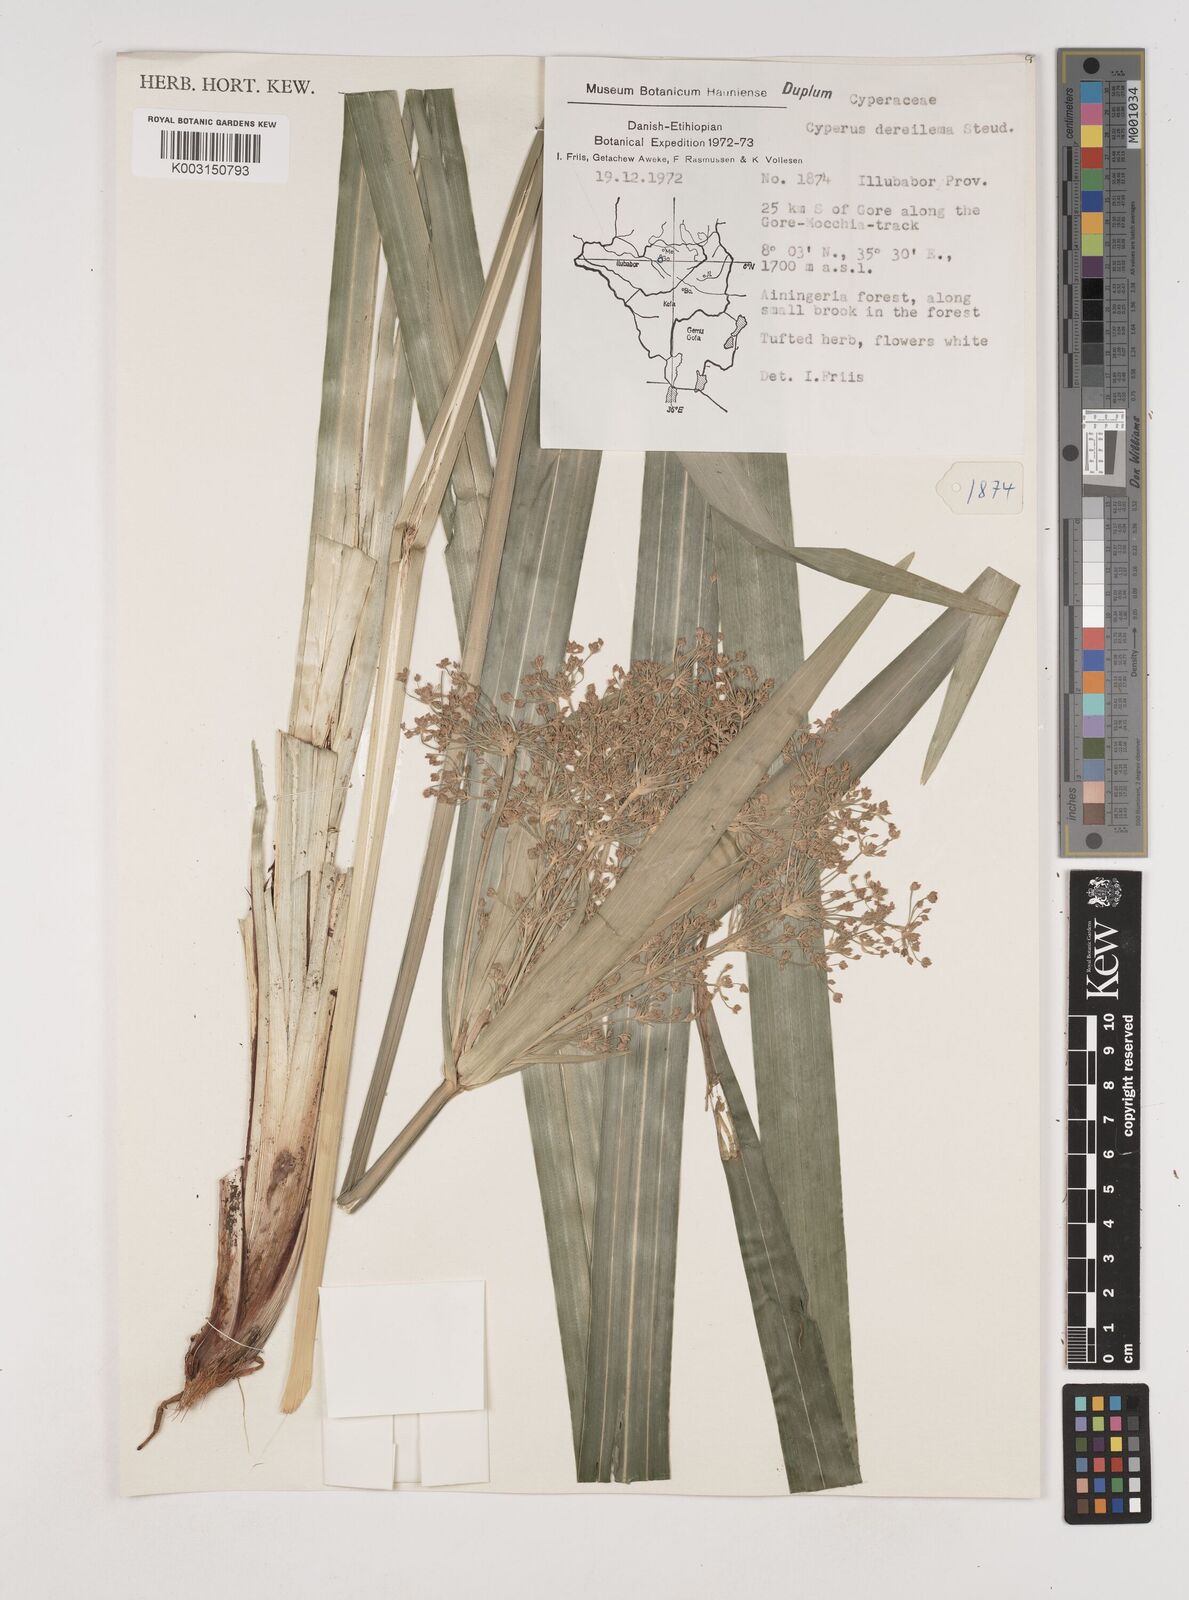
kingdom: Plantae
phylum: Tracheophyta
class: Liliopsida
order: Poales
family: Cyperaceae
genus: Cyperus
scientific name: Cyperus derreilema
